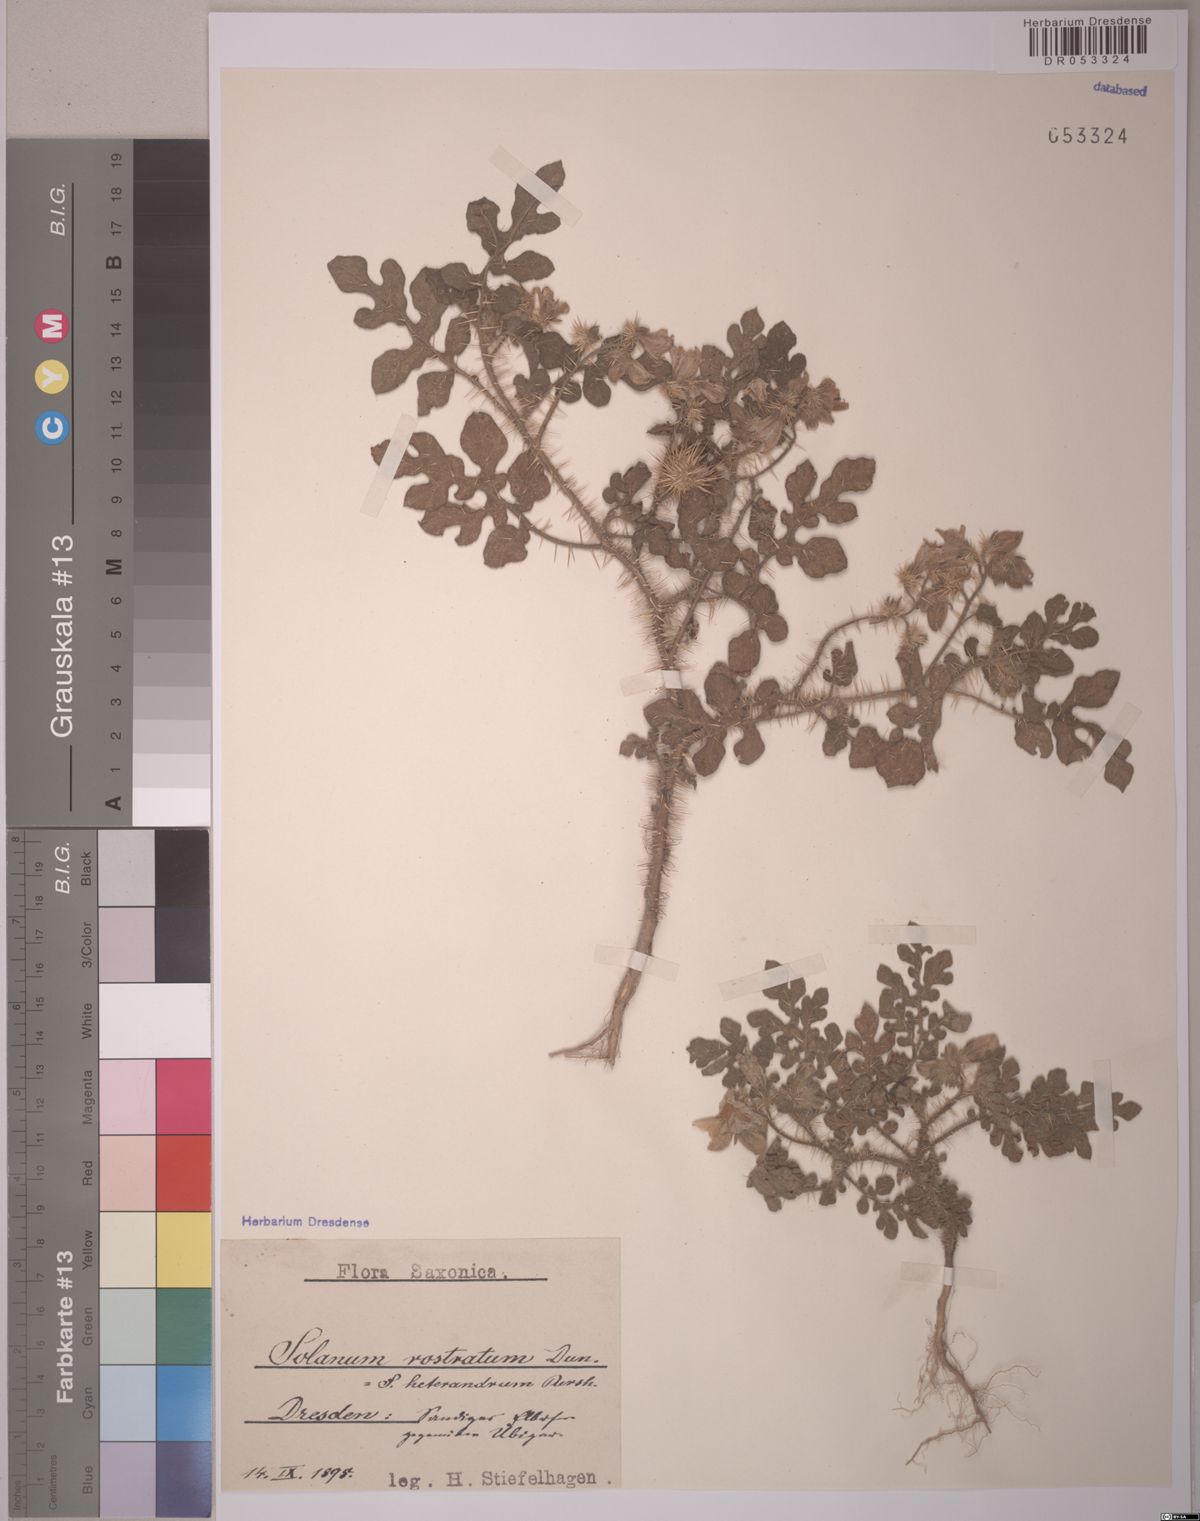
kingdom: Plantae
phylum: Tracheophyta
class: Magnoliopsida
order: Solanales
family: Solanaceae
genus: Solanum
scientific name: Solanum angustifolium
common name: Buffalobur nightshade
